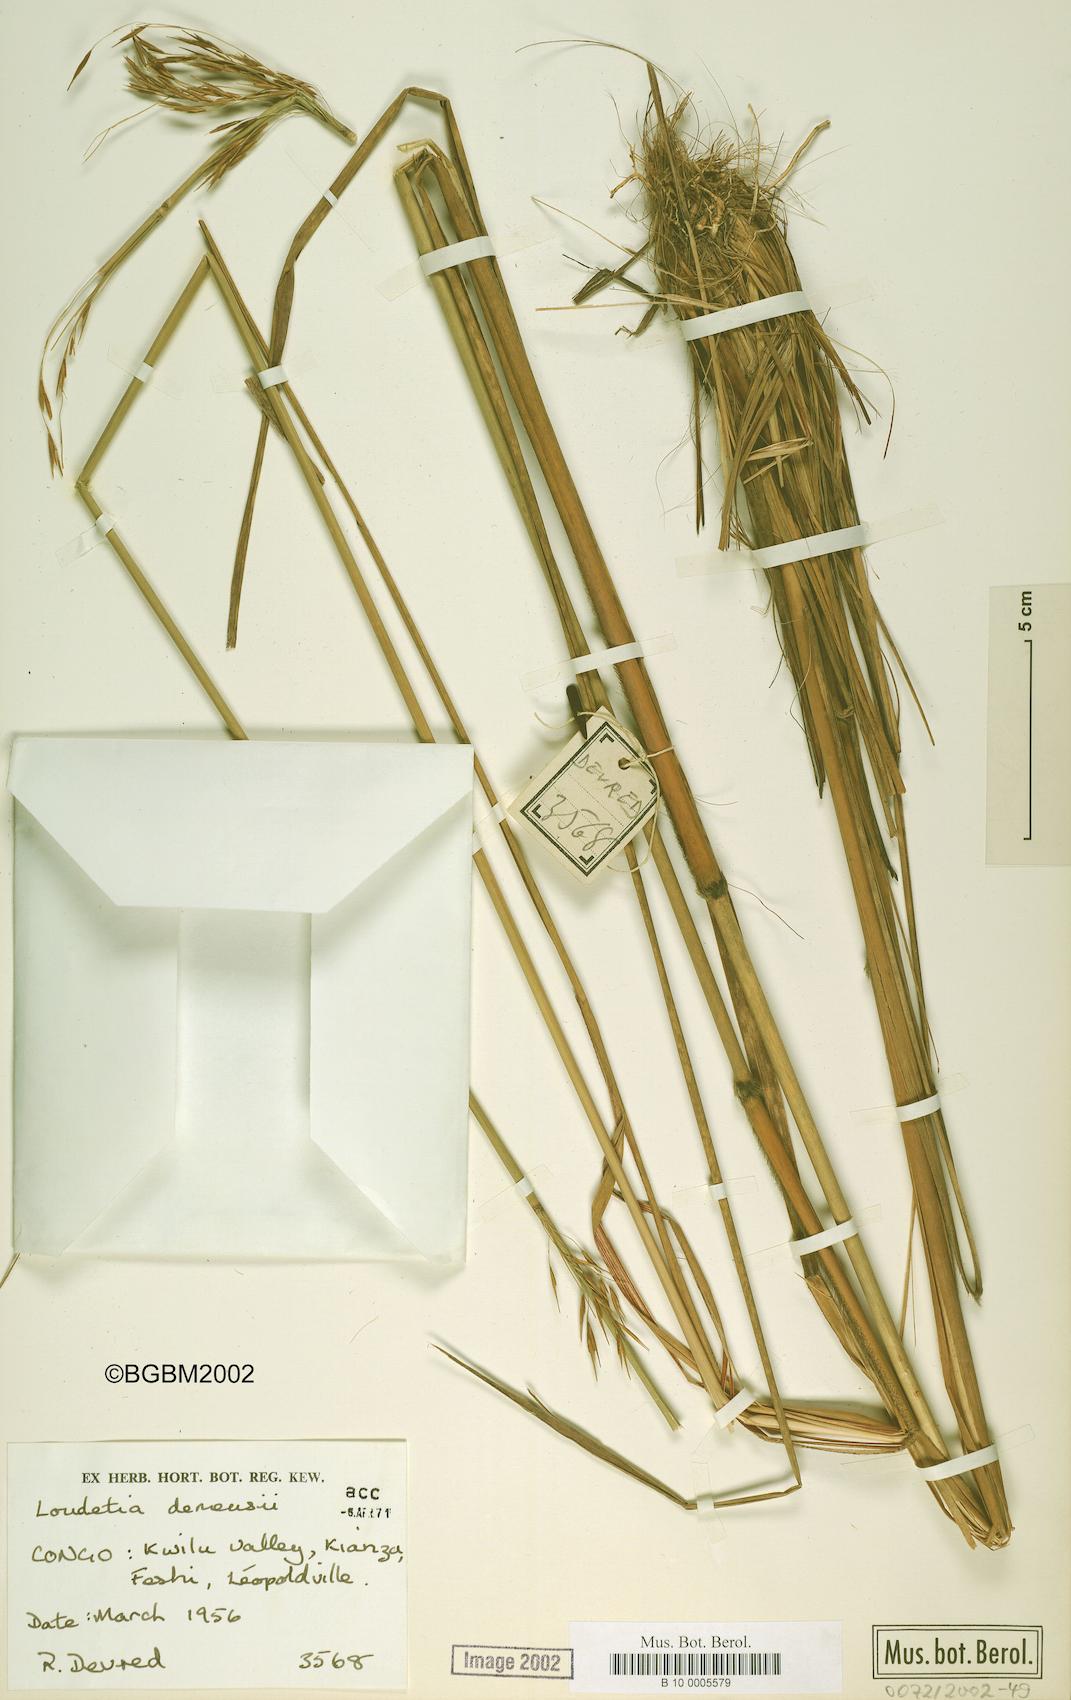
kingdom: Plantae
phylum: Tracheophyta
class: Liliopsida
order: Poales
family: Poaceae
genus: Loudetia
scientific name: Loudetia demeusei
